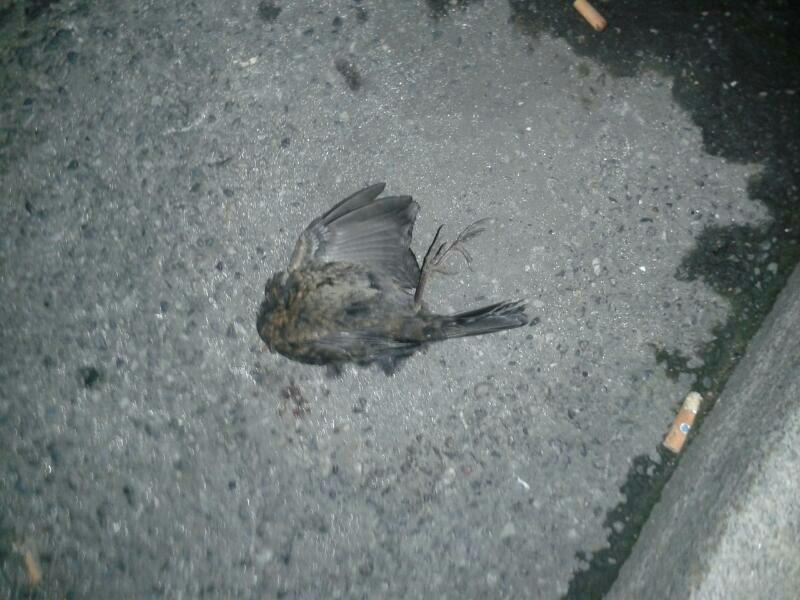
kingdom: Animalia
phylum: Chordata
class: Aves
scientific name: Aves
